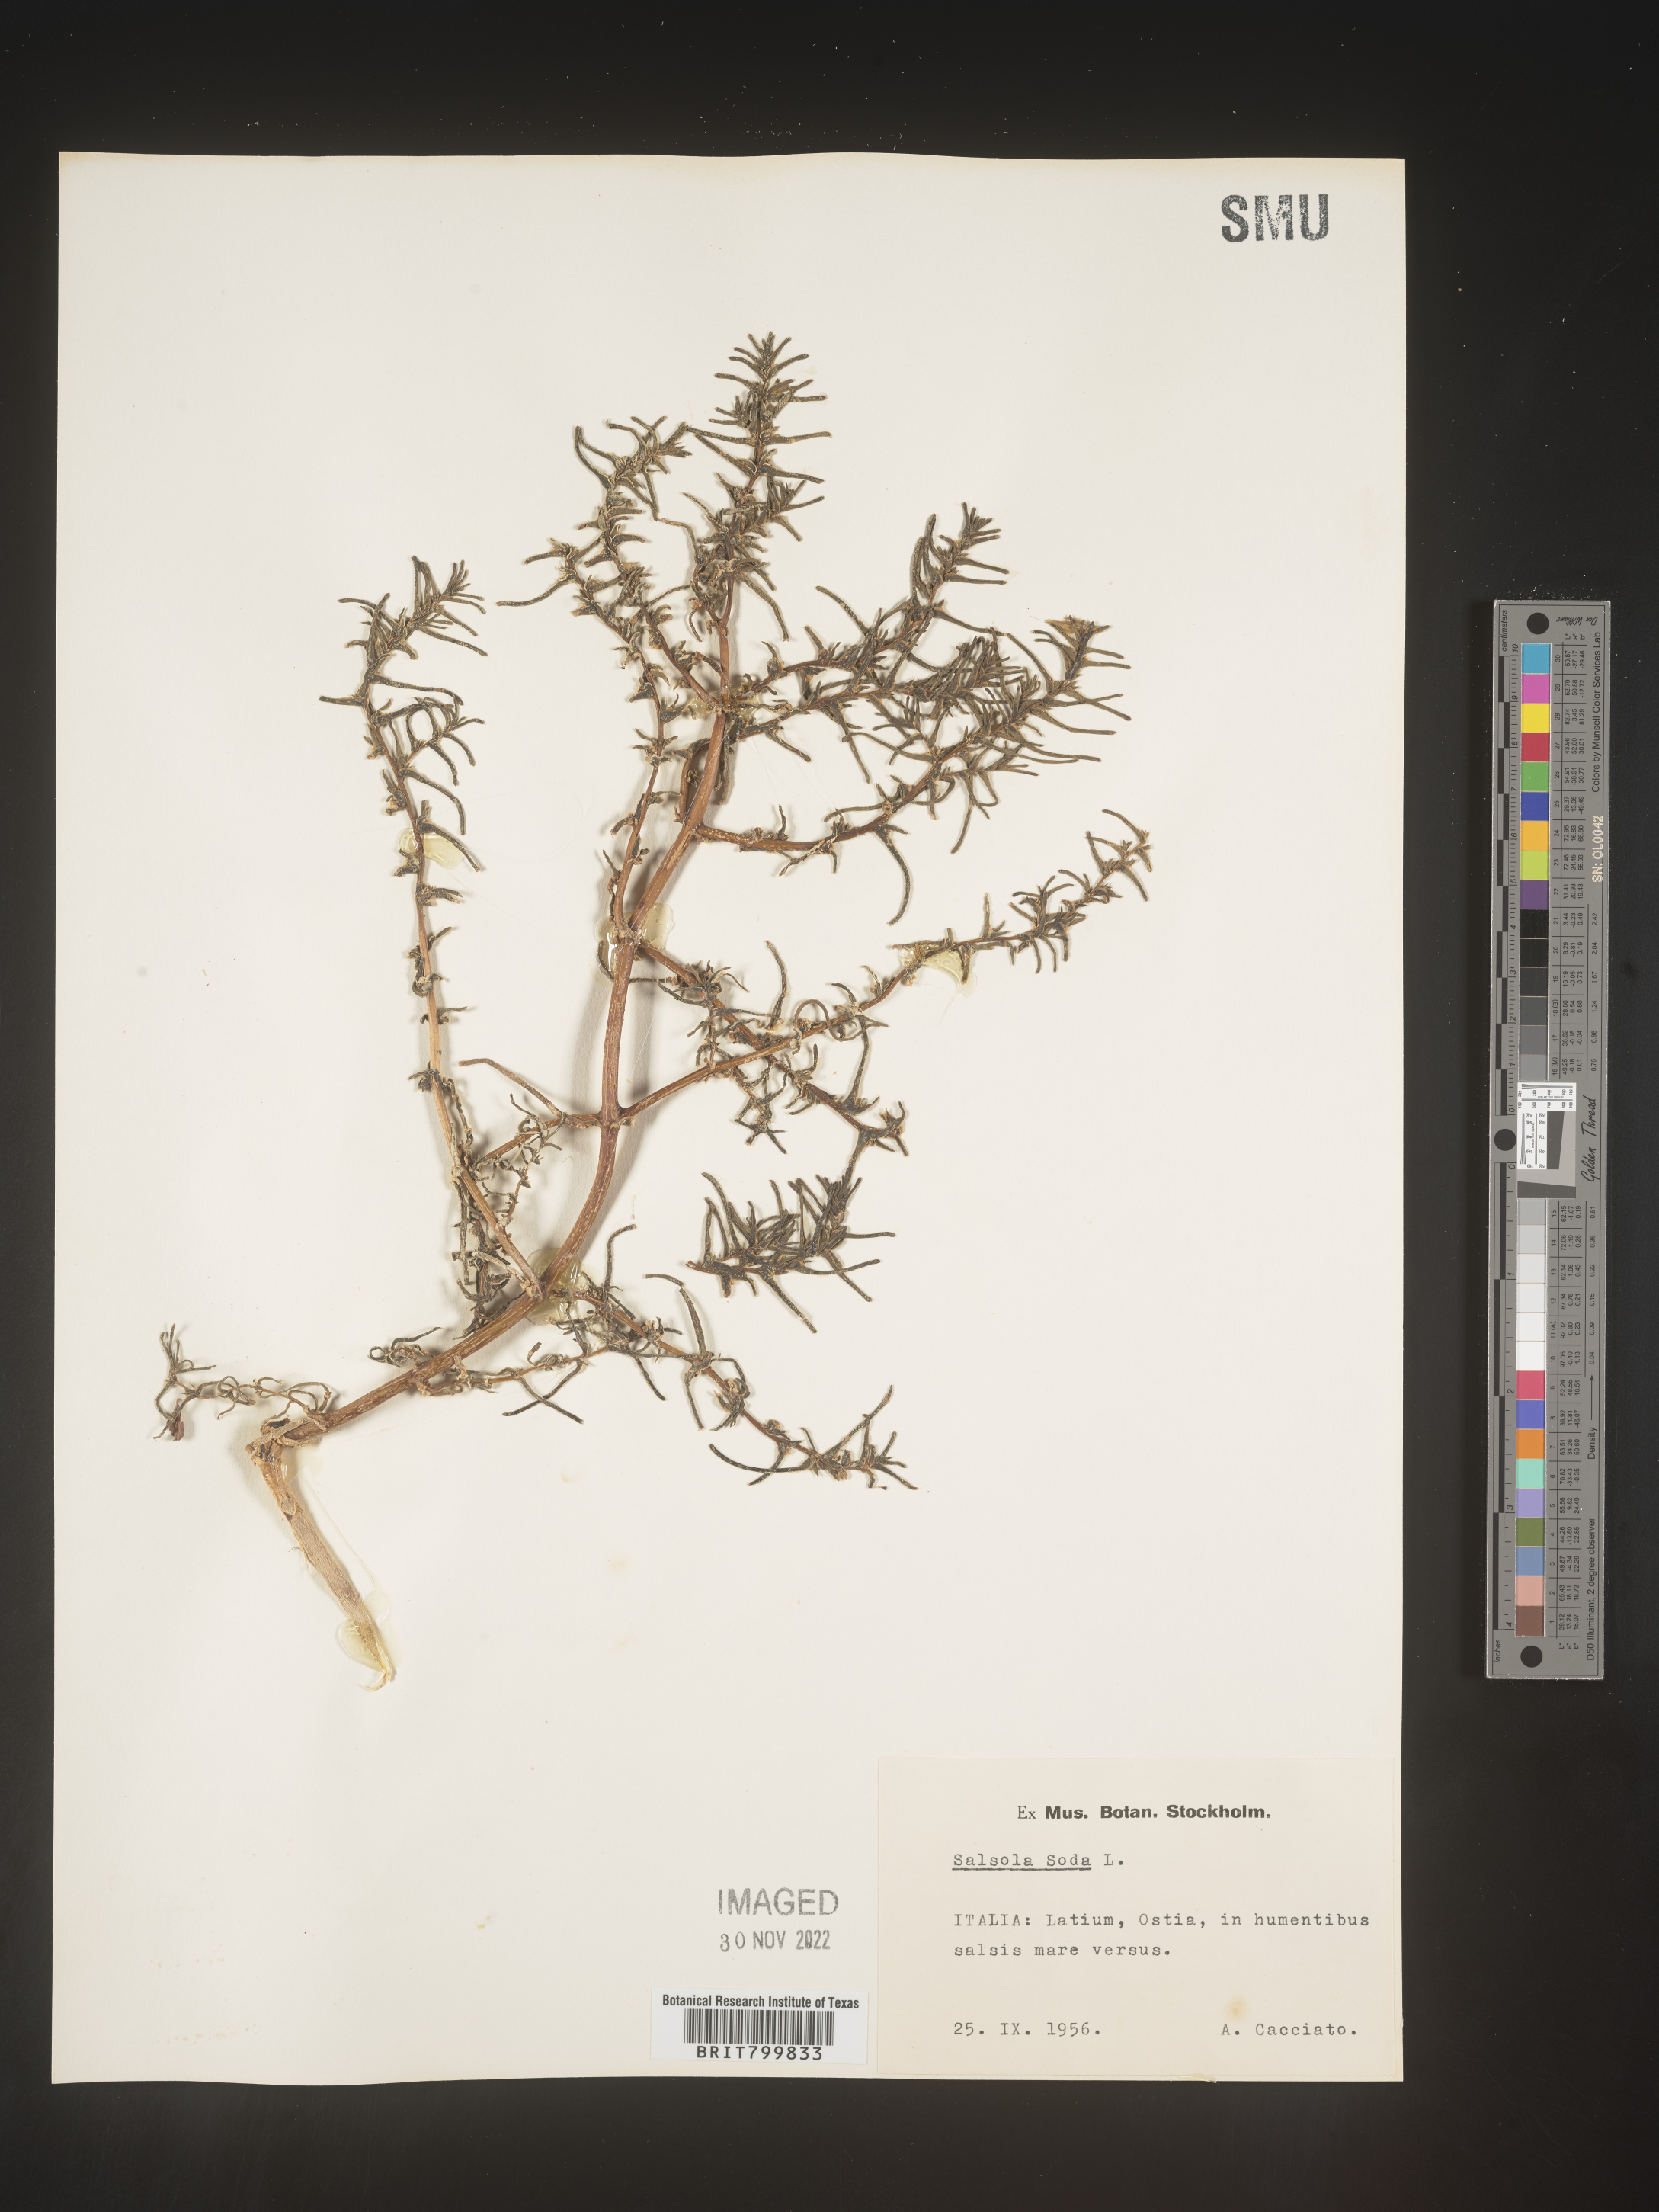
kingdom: Plantae
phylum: Tracheophyta
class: Magnoliopsida
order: Caryophyllales
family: Amaranthaceae
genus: Salsola
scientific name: Salsola
